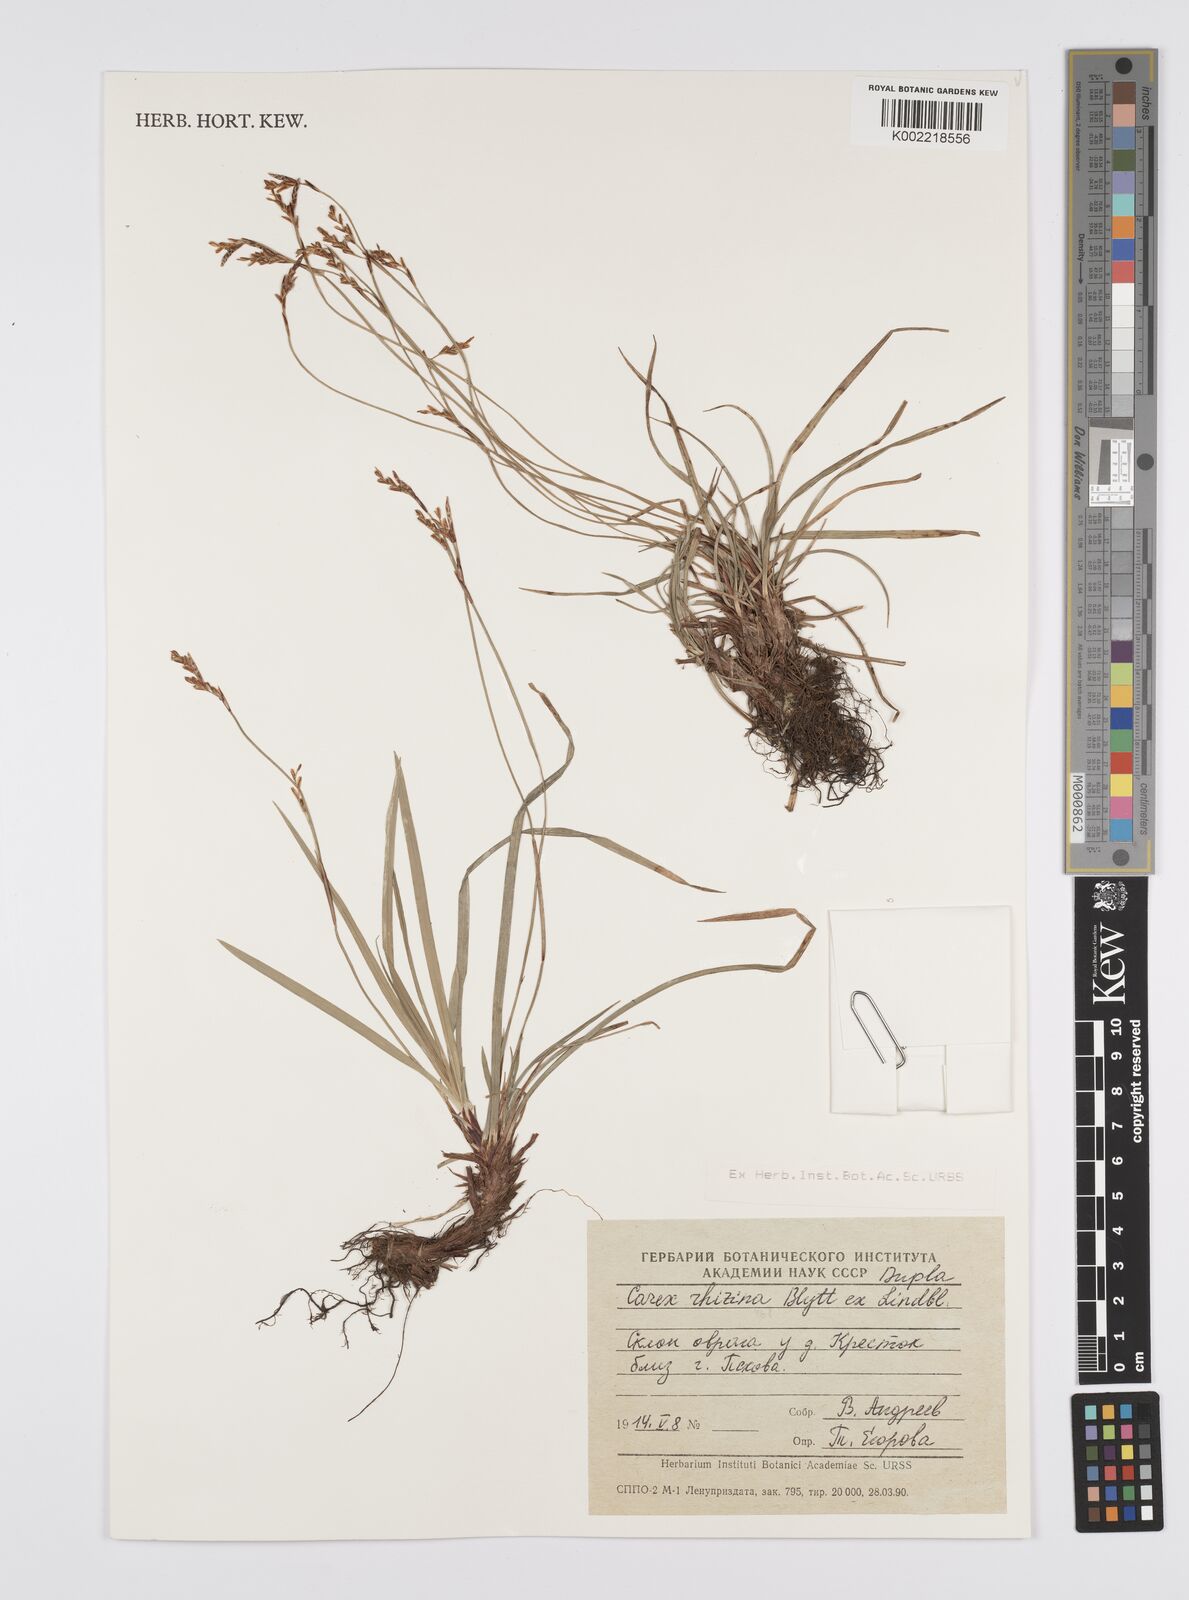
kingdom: Plantae
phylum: Tracheophyta
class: Liliopsida
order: Poales
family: Cyperaceae
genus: Carex
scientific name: Carex pediformis
